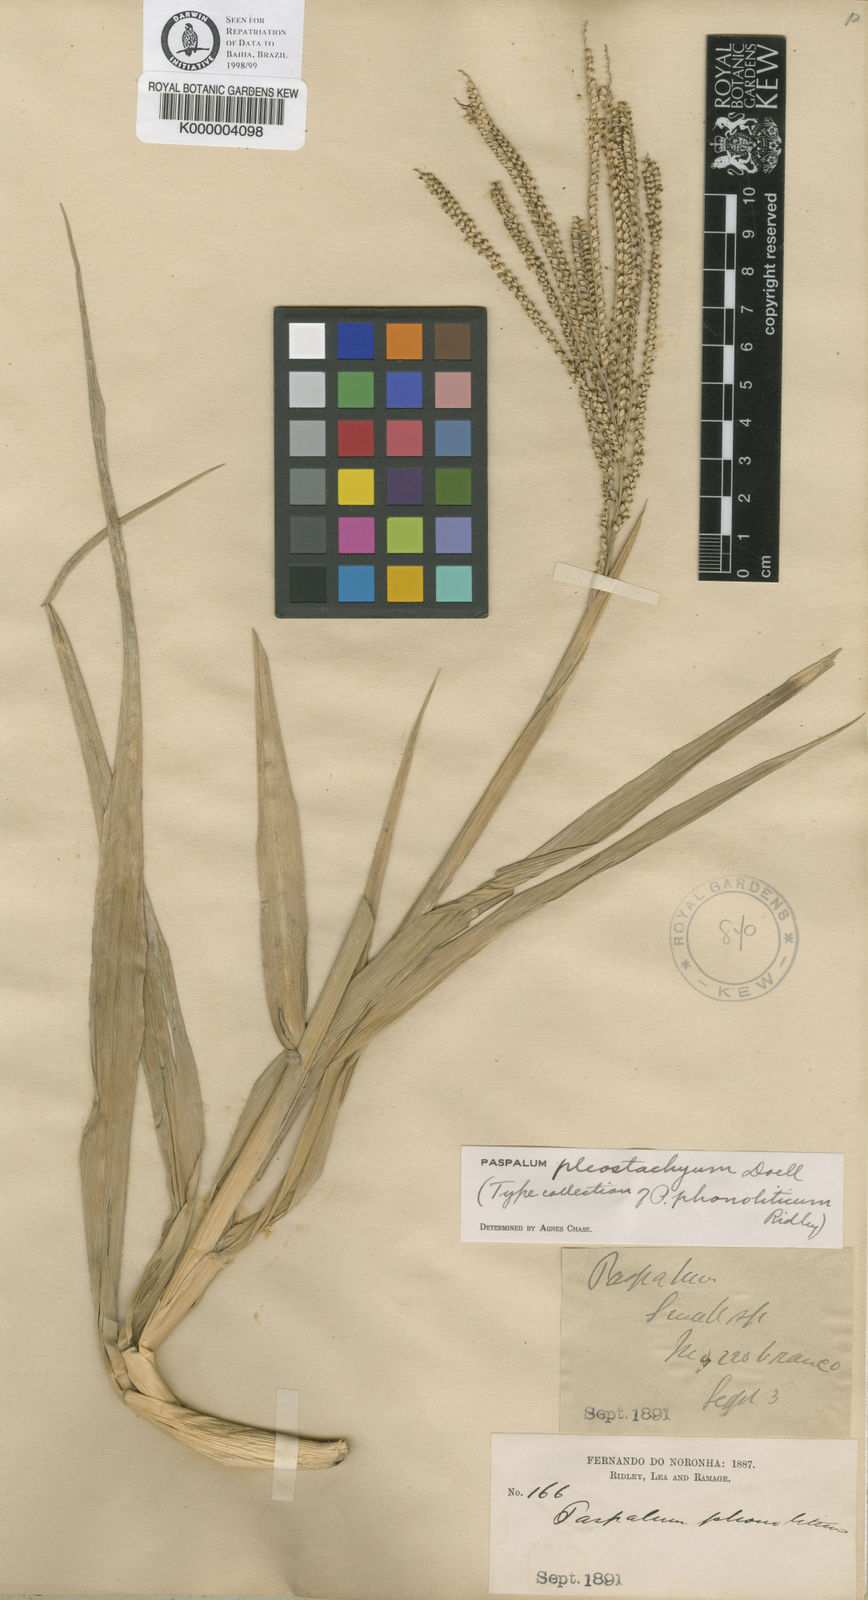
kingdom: Plantae
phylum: Tracheophyta
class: Liliopsida
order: Poales
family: Poaceae
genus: Paspalum
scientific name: Paspalum
